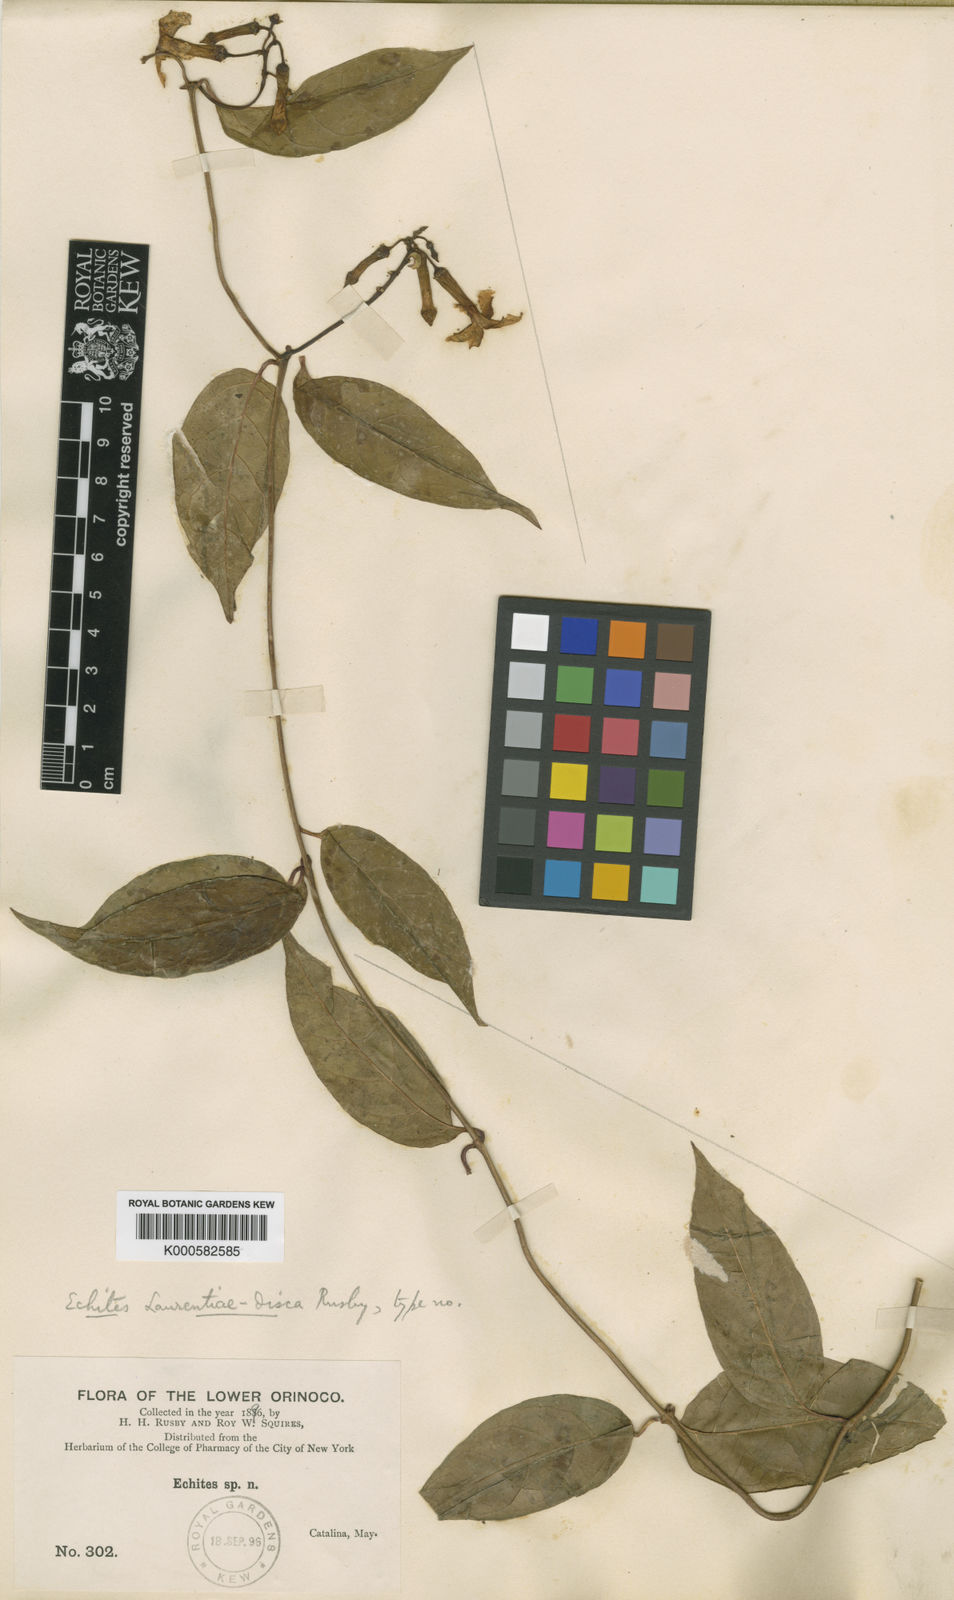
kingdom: Plantae
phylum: Tracheophyta
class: Magnoliopsida
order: Gentianales
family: Apocynaceae
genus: Prestonia
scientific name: Prestonia quinquangularis
